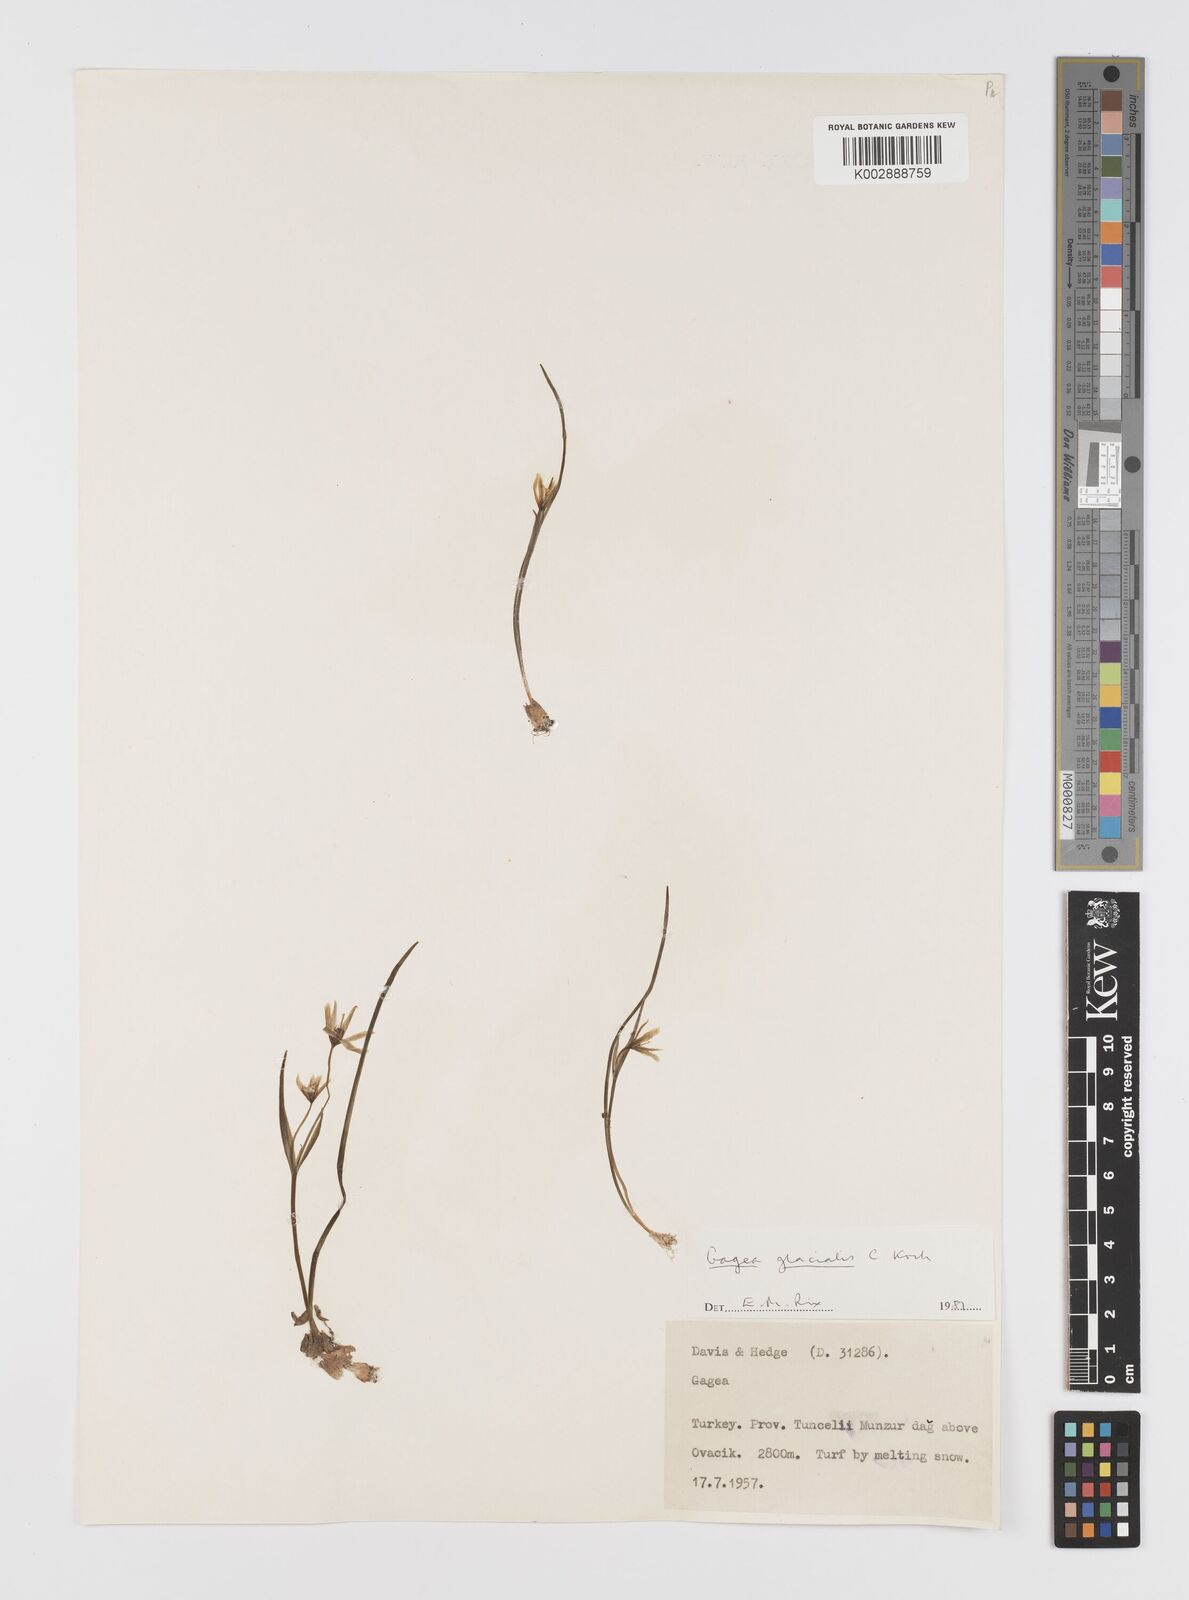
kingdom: Plantae
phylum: Tracheophyta
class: Liliopsida
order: Liliales
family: Liliaceae
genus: Gagea
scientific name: Gagea glacialis
